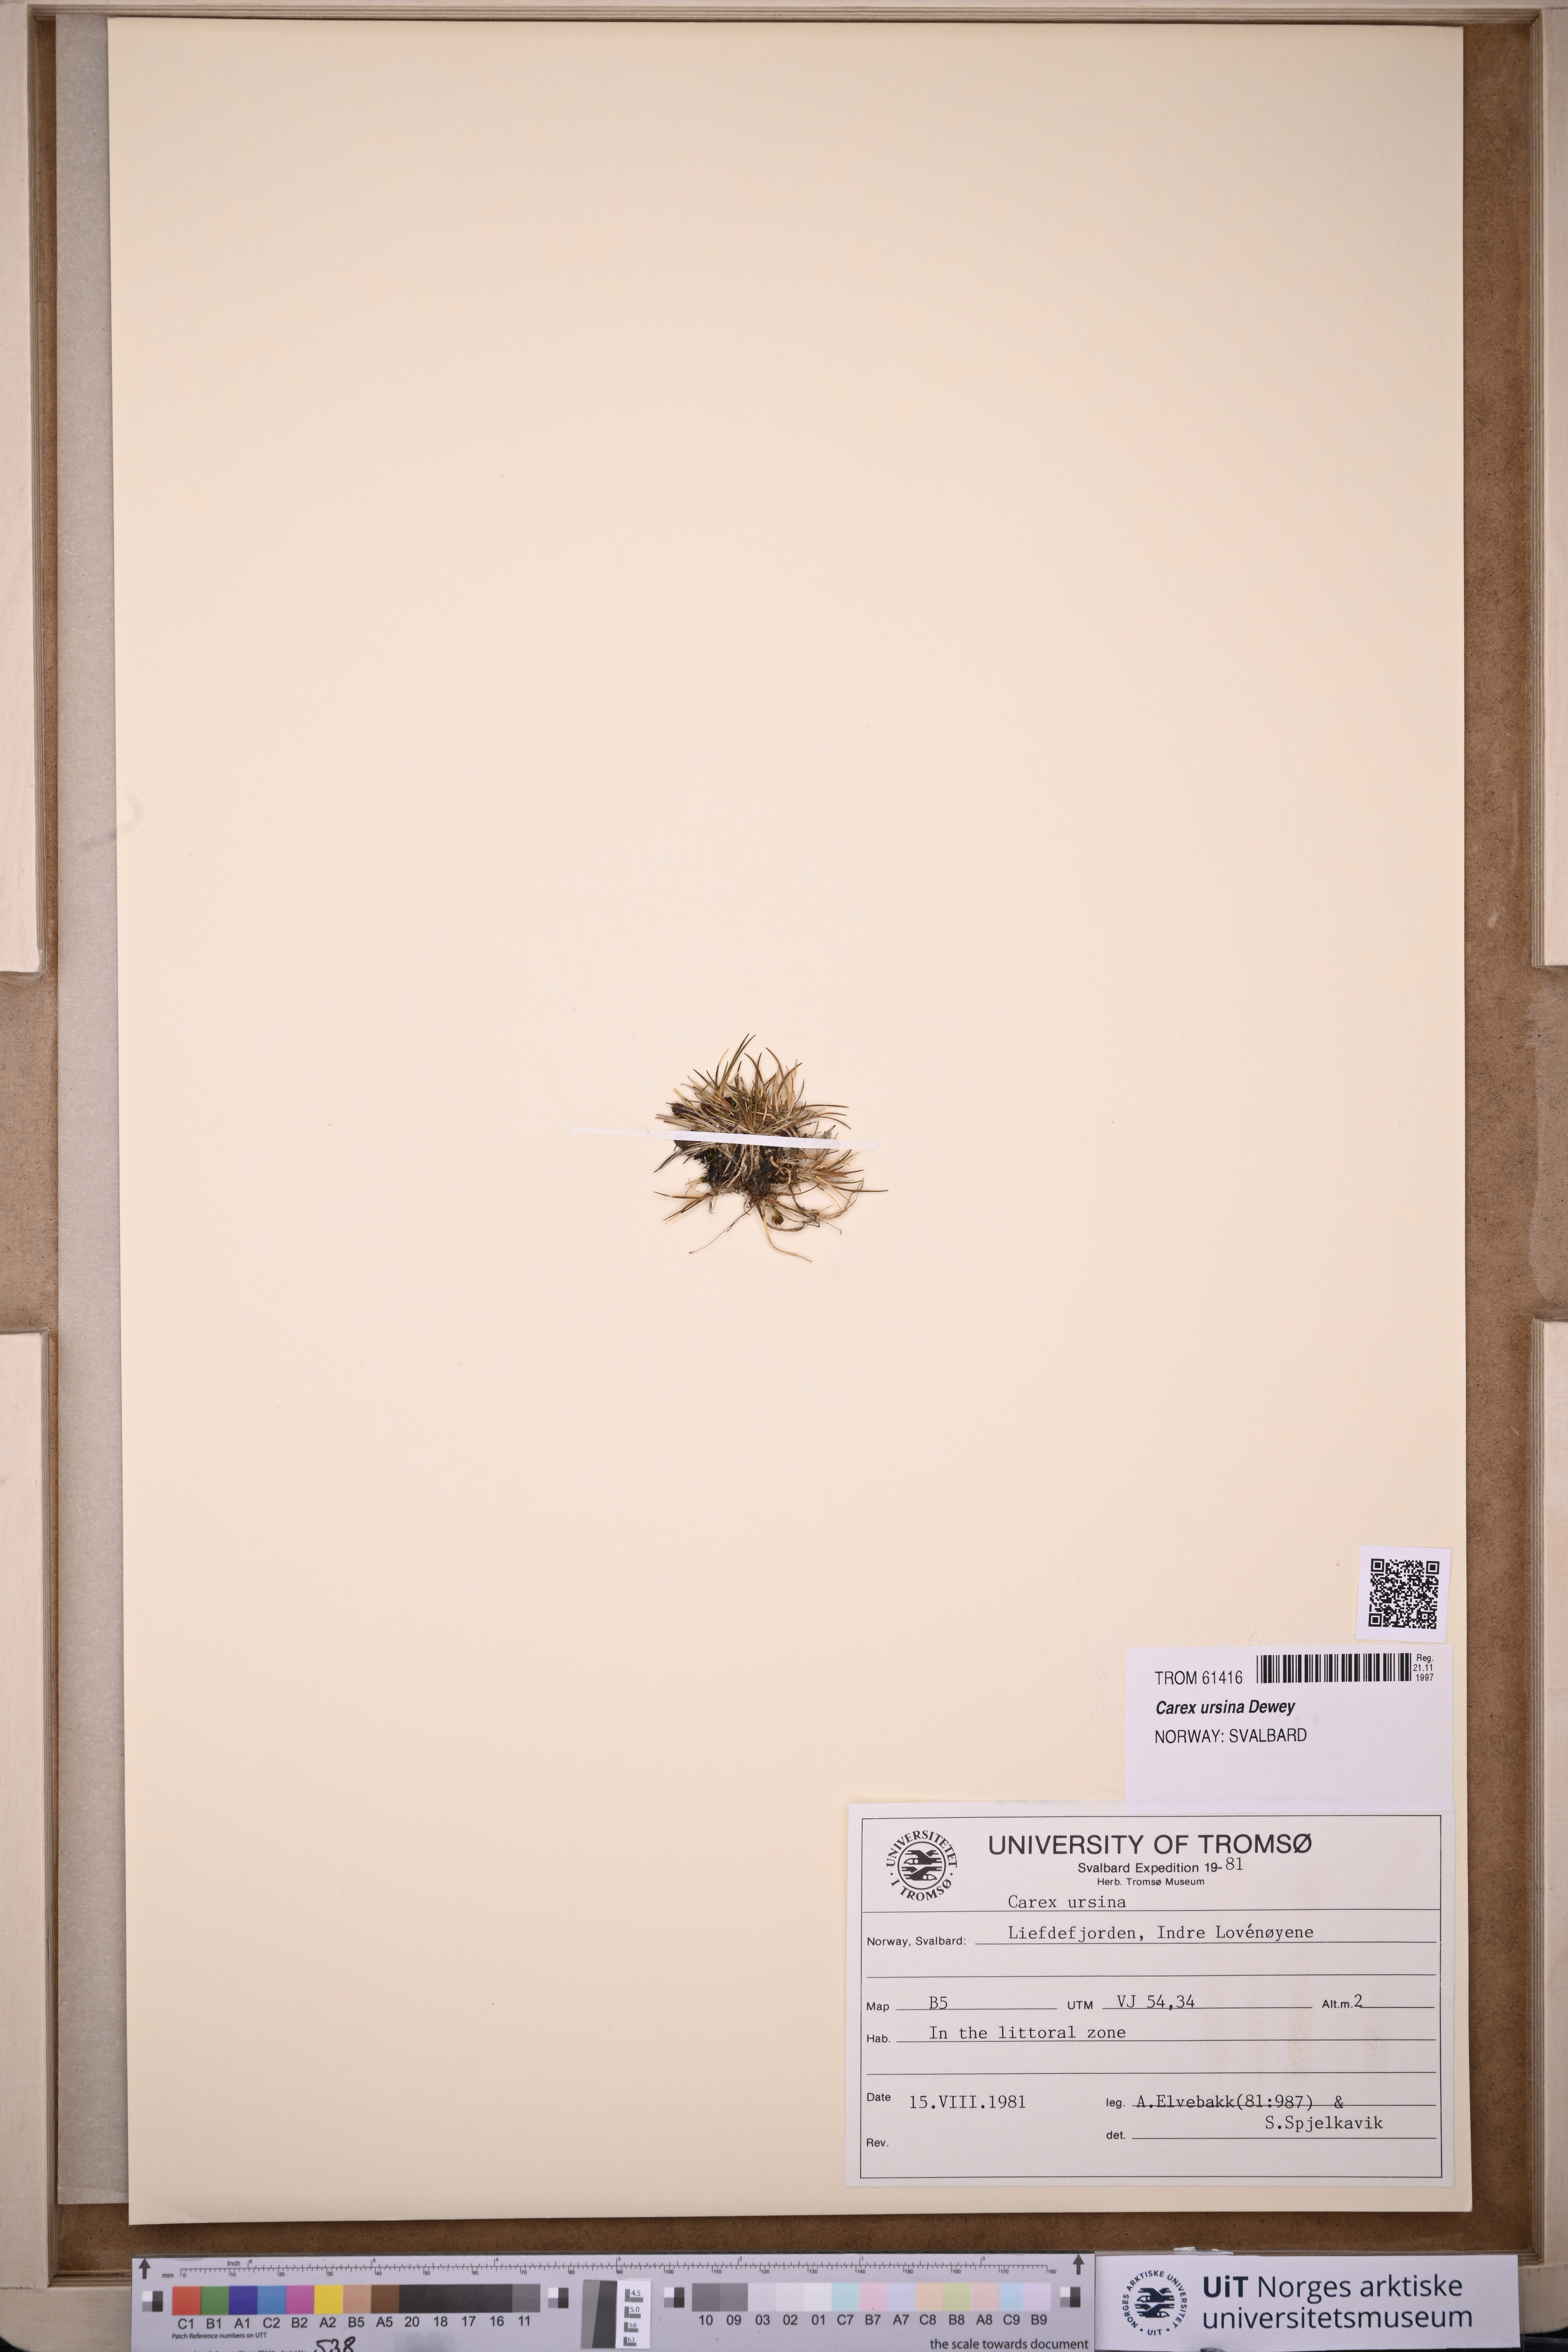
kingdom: Plantae
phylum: Tracheophyta
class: Liliopsida
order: Poales
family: Cyperaceae
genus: Carex
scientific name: Carex ursina
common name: Bear sedge
